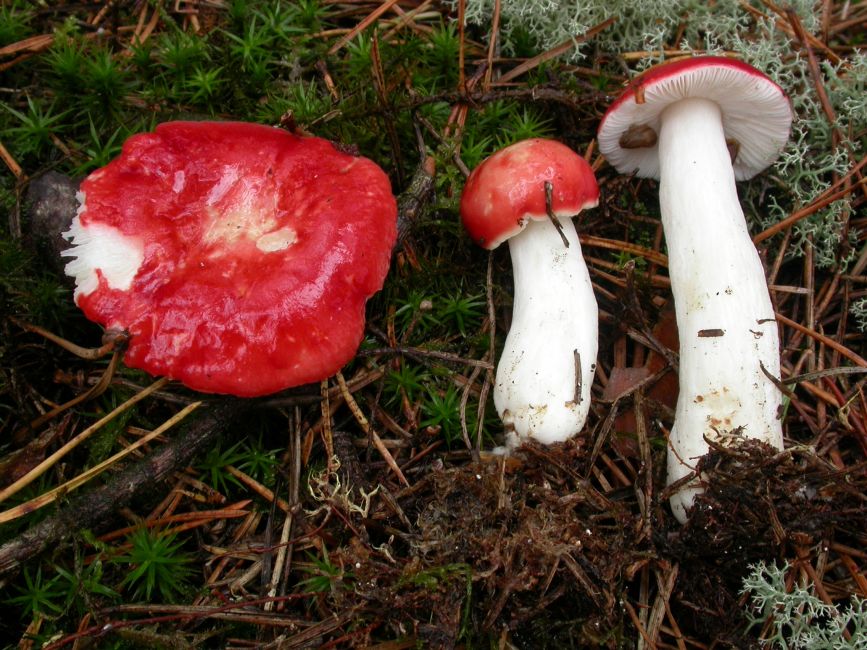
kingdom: Fungi
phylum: Basidiomycota
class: Agaricomycetes
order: Russulales
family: Russulaceae
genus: Russula
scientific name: Russula emetica
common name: stor gift-skørhat
